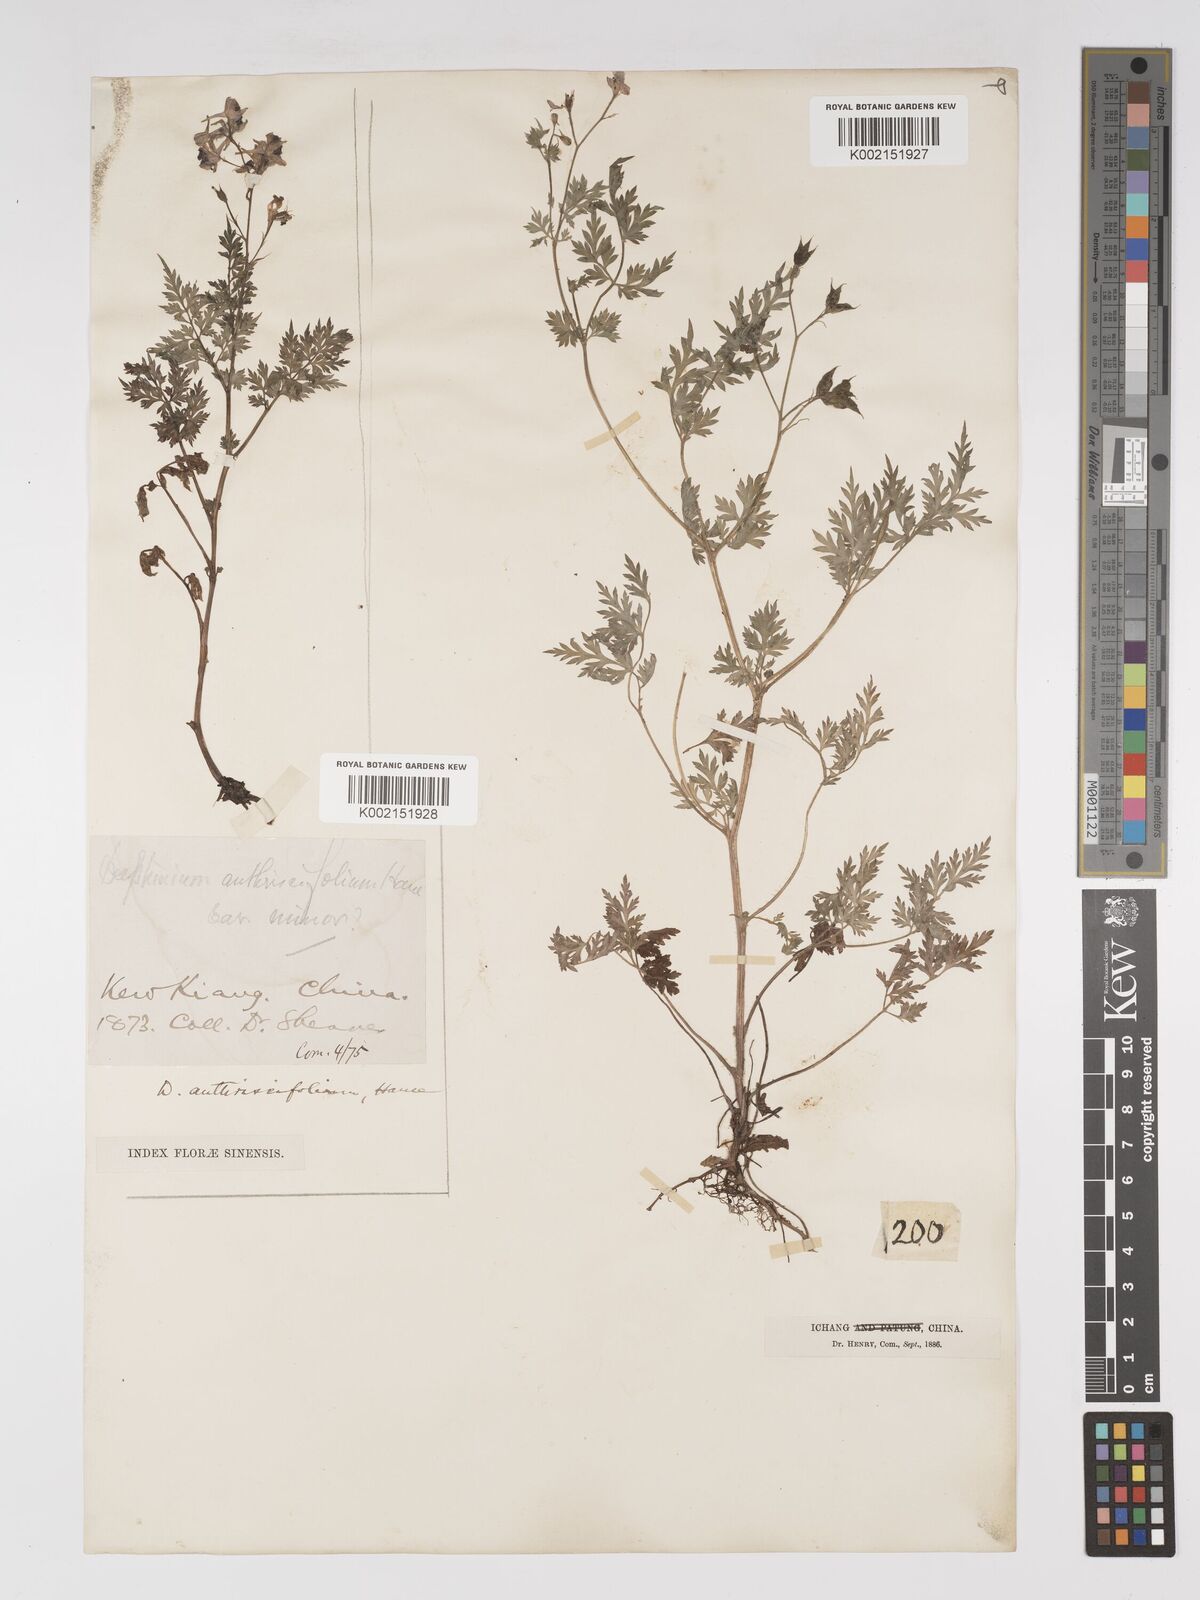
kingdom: Plantae
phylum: Tracheophyta
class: Magnoliopsida
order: Ranunculales
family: Ranunculaceae
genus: Delphinium
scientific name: Delphinium anthriscifolium
